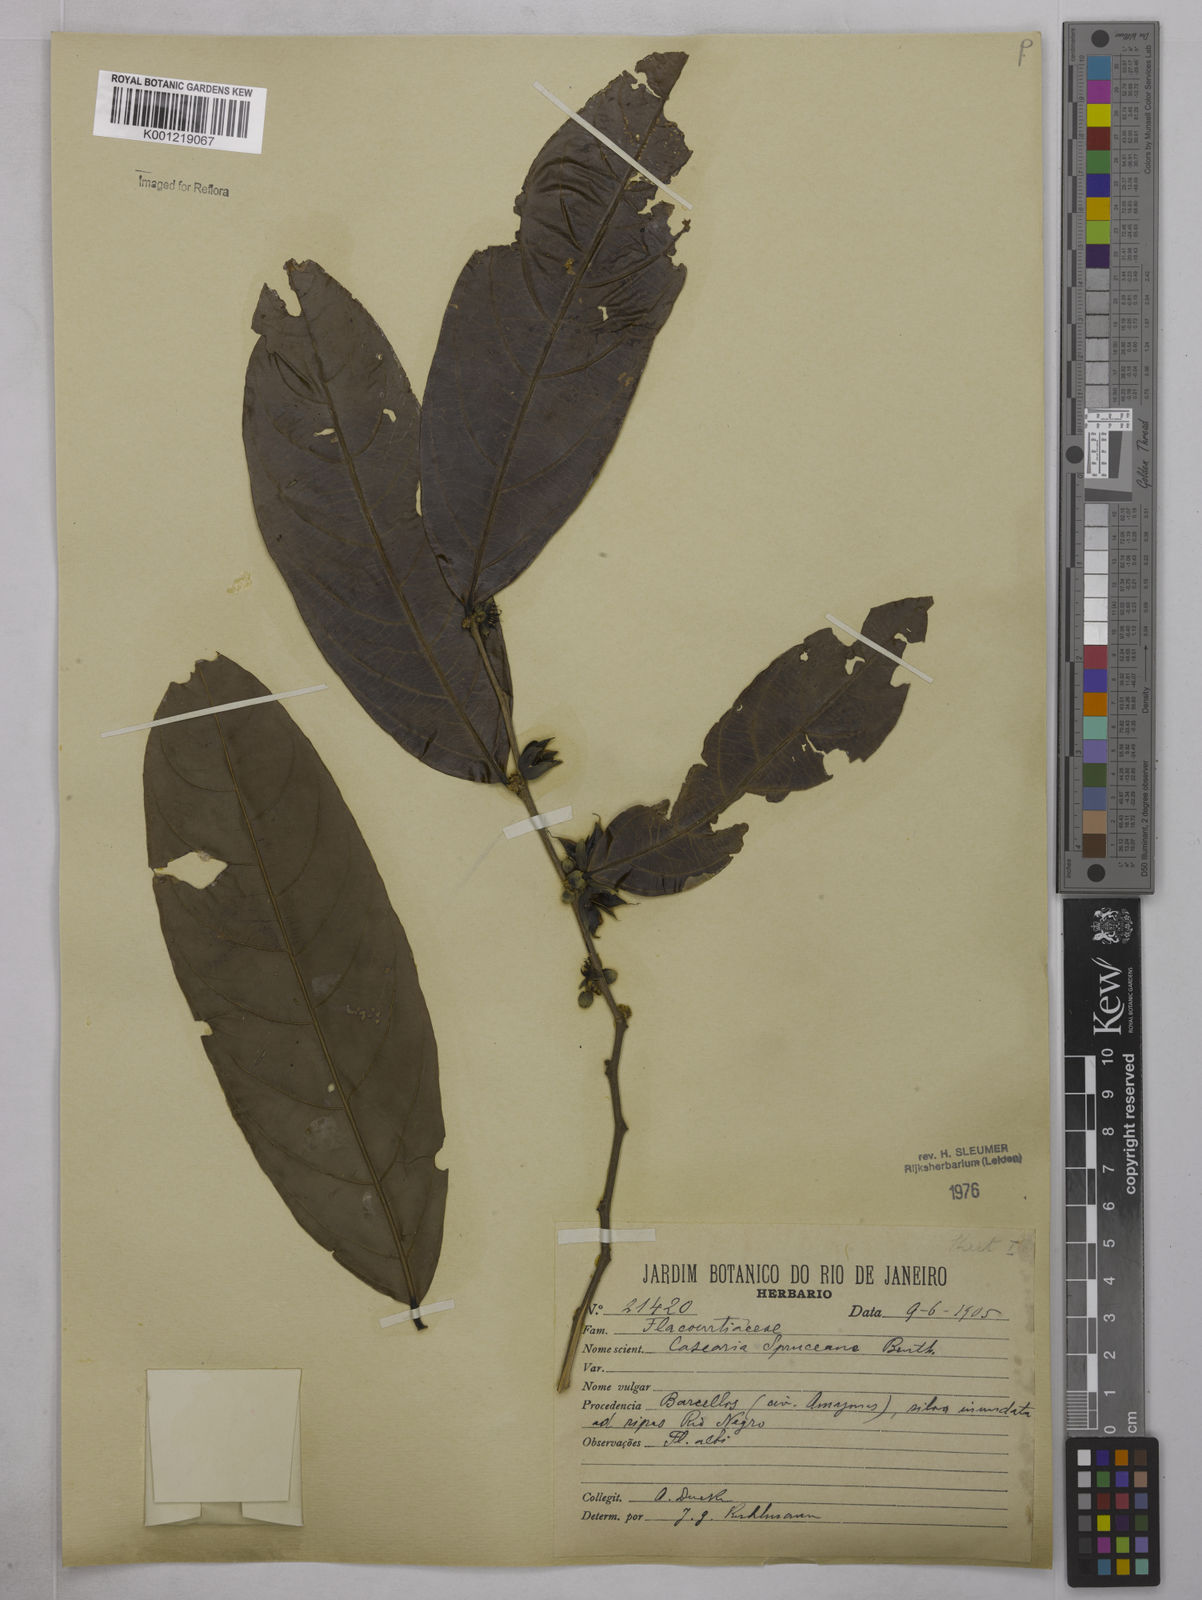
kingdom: Plantae
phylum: Tracheophyta
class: Magnoliopsida
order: Malpighiales
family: Salicaceae
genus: Piparea
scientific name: Piparea spruceana
